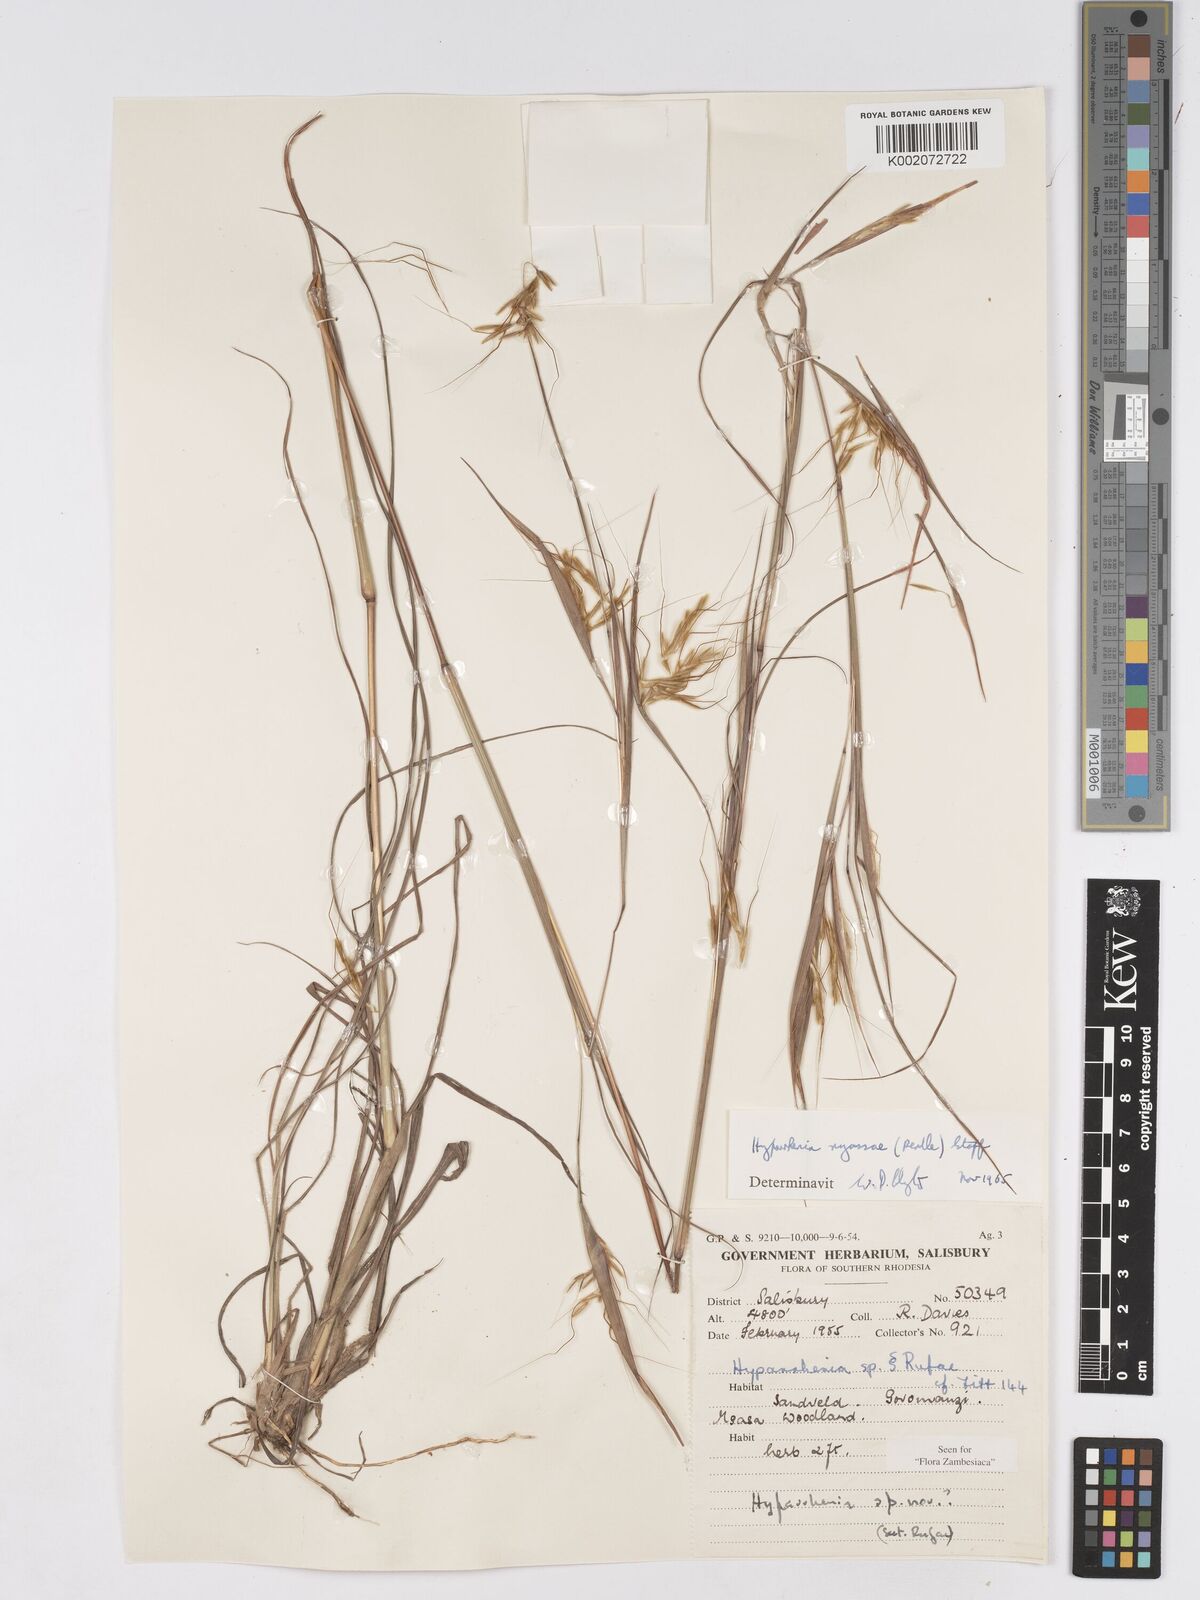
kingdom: Plantae
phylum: Tracheophyta
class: Liliopsida
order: Poales
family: Poaceae
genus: Hyparrhenia
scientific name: Hyparrhenia nyassae
